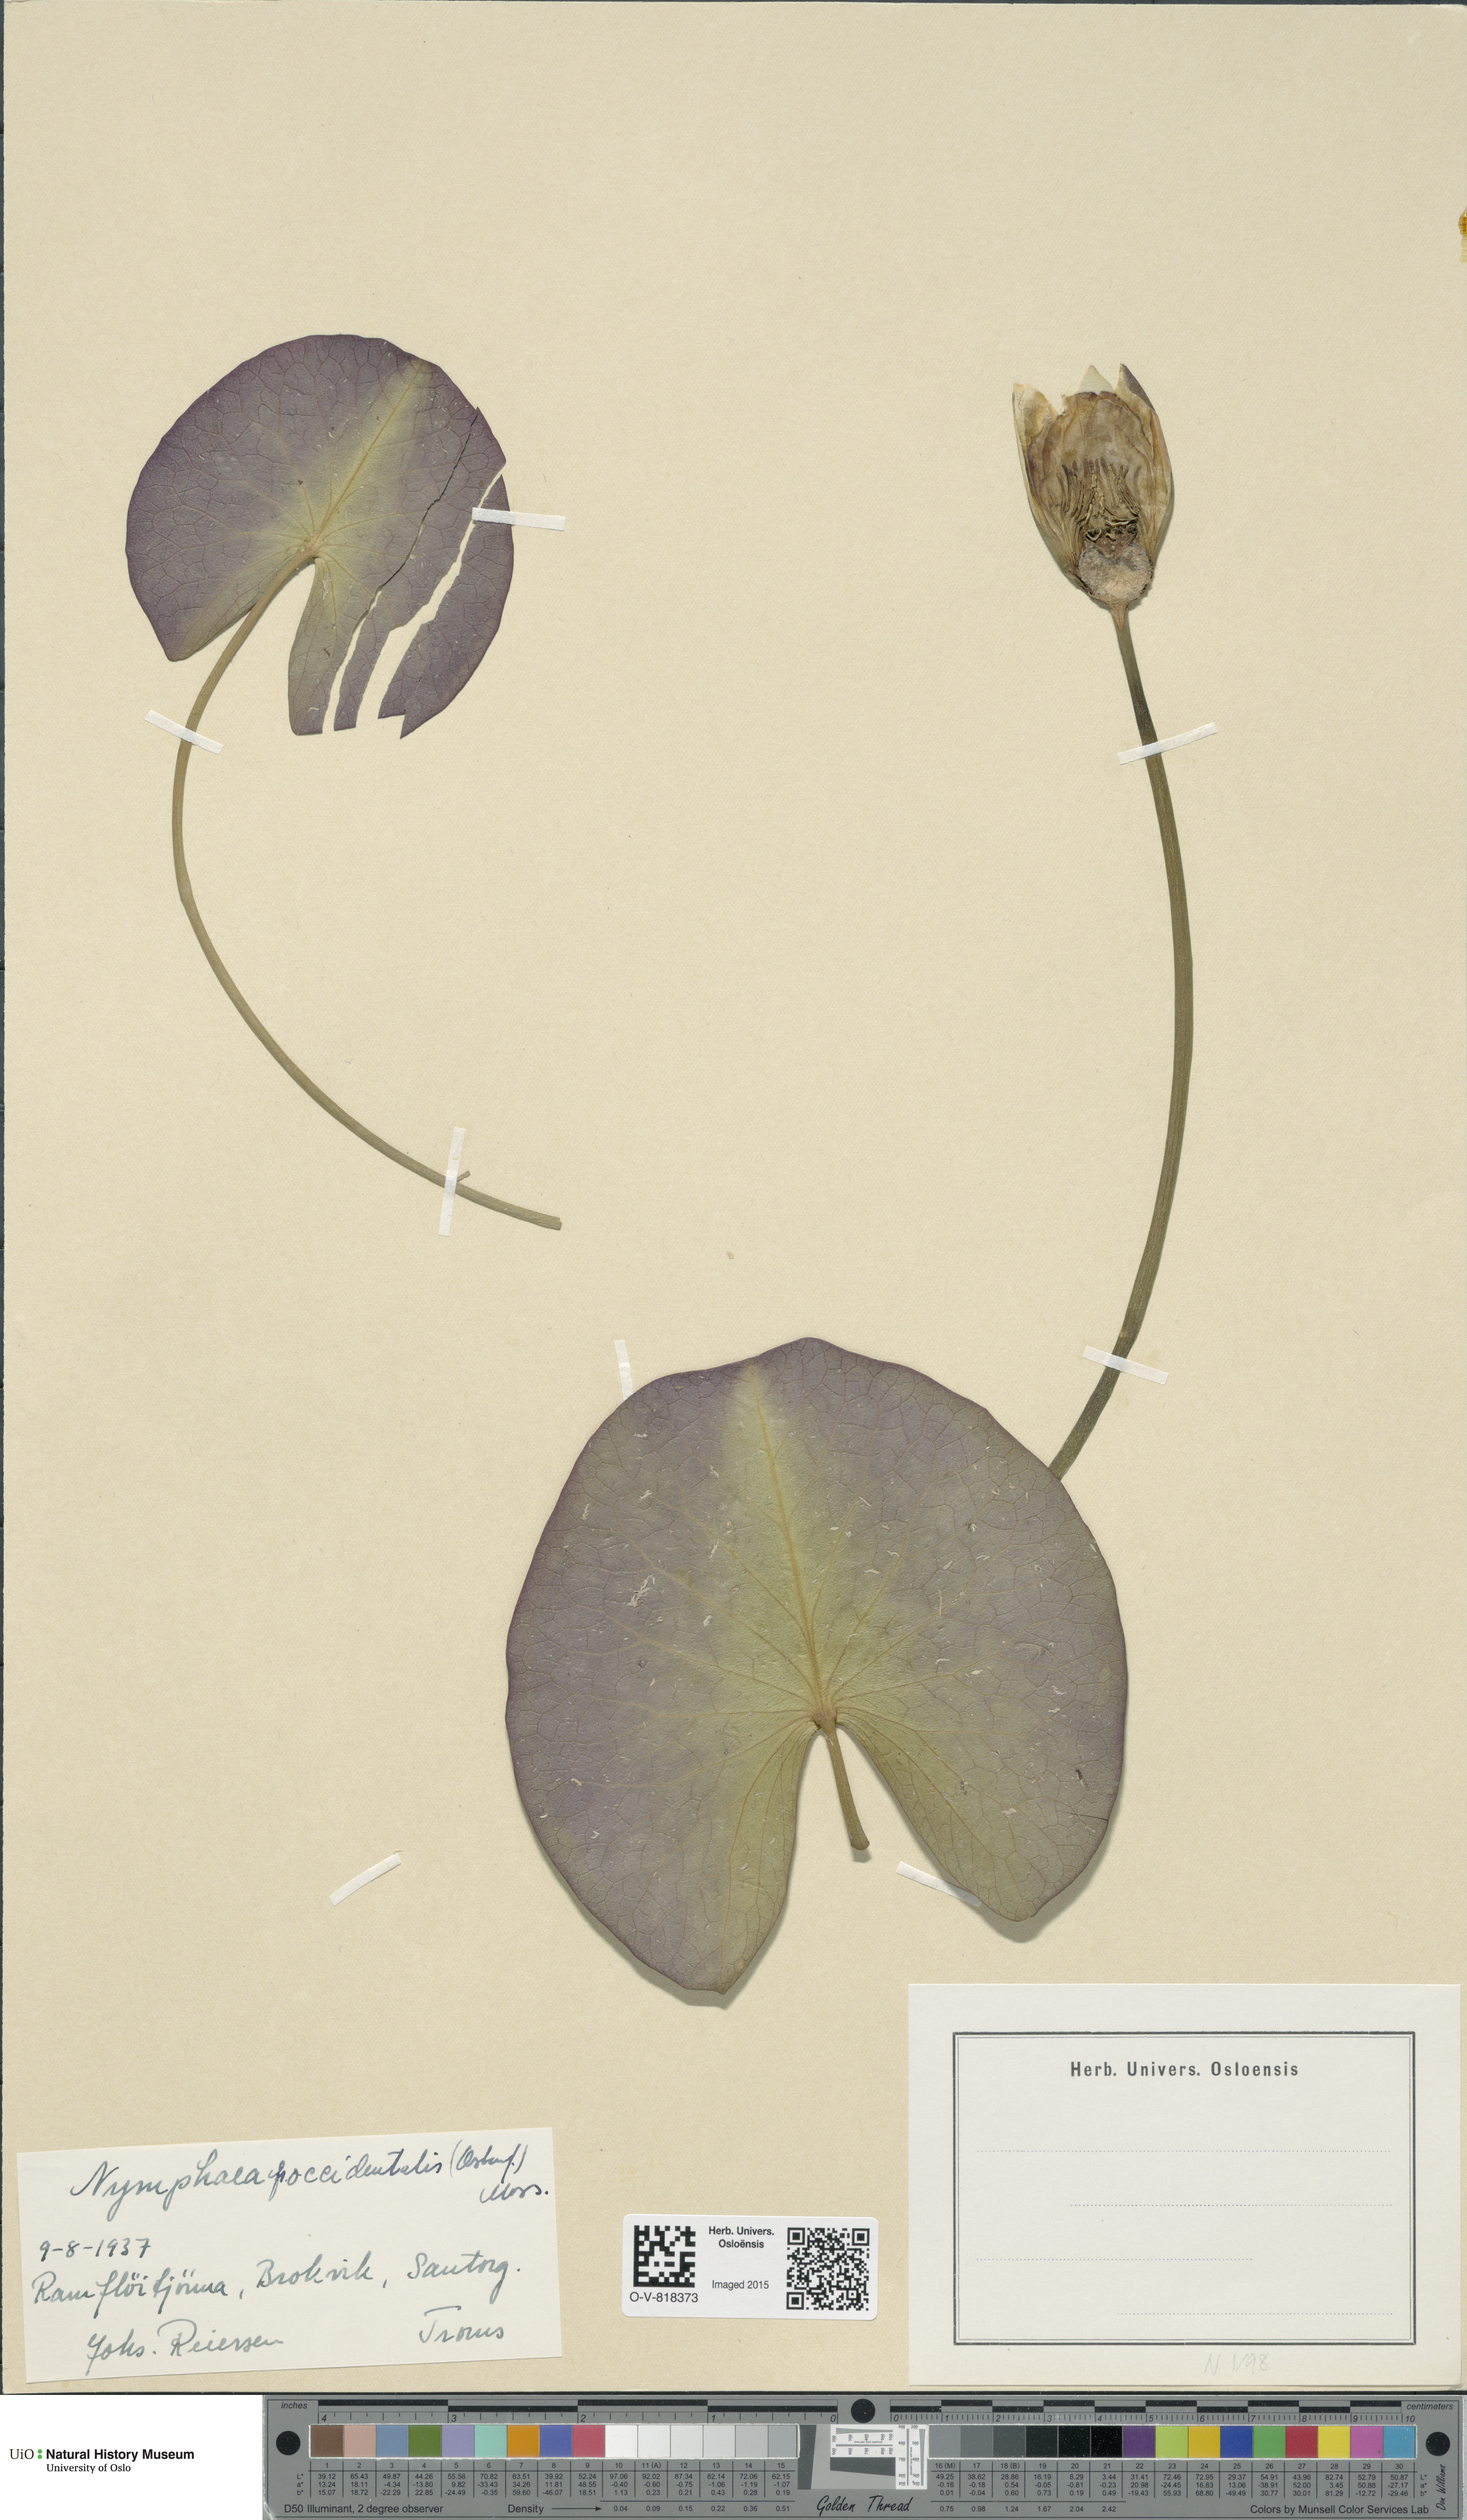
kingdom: Plantae
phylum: Tracheophyta
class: Magnoliopsida
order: Nymphaeales
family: Nymphaeaceae
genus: Nymphaea
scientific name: Nymphaea alba
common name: White water-lily
